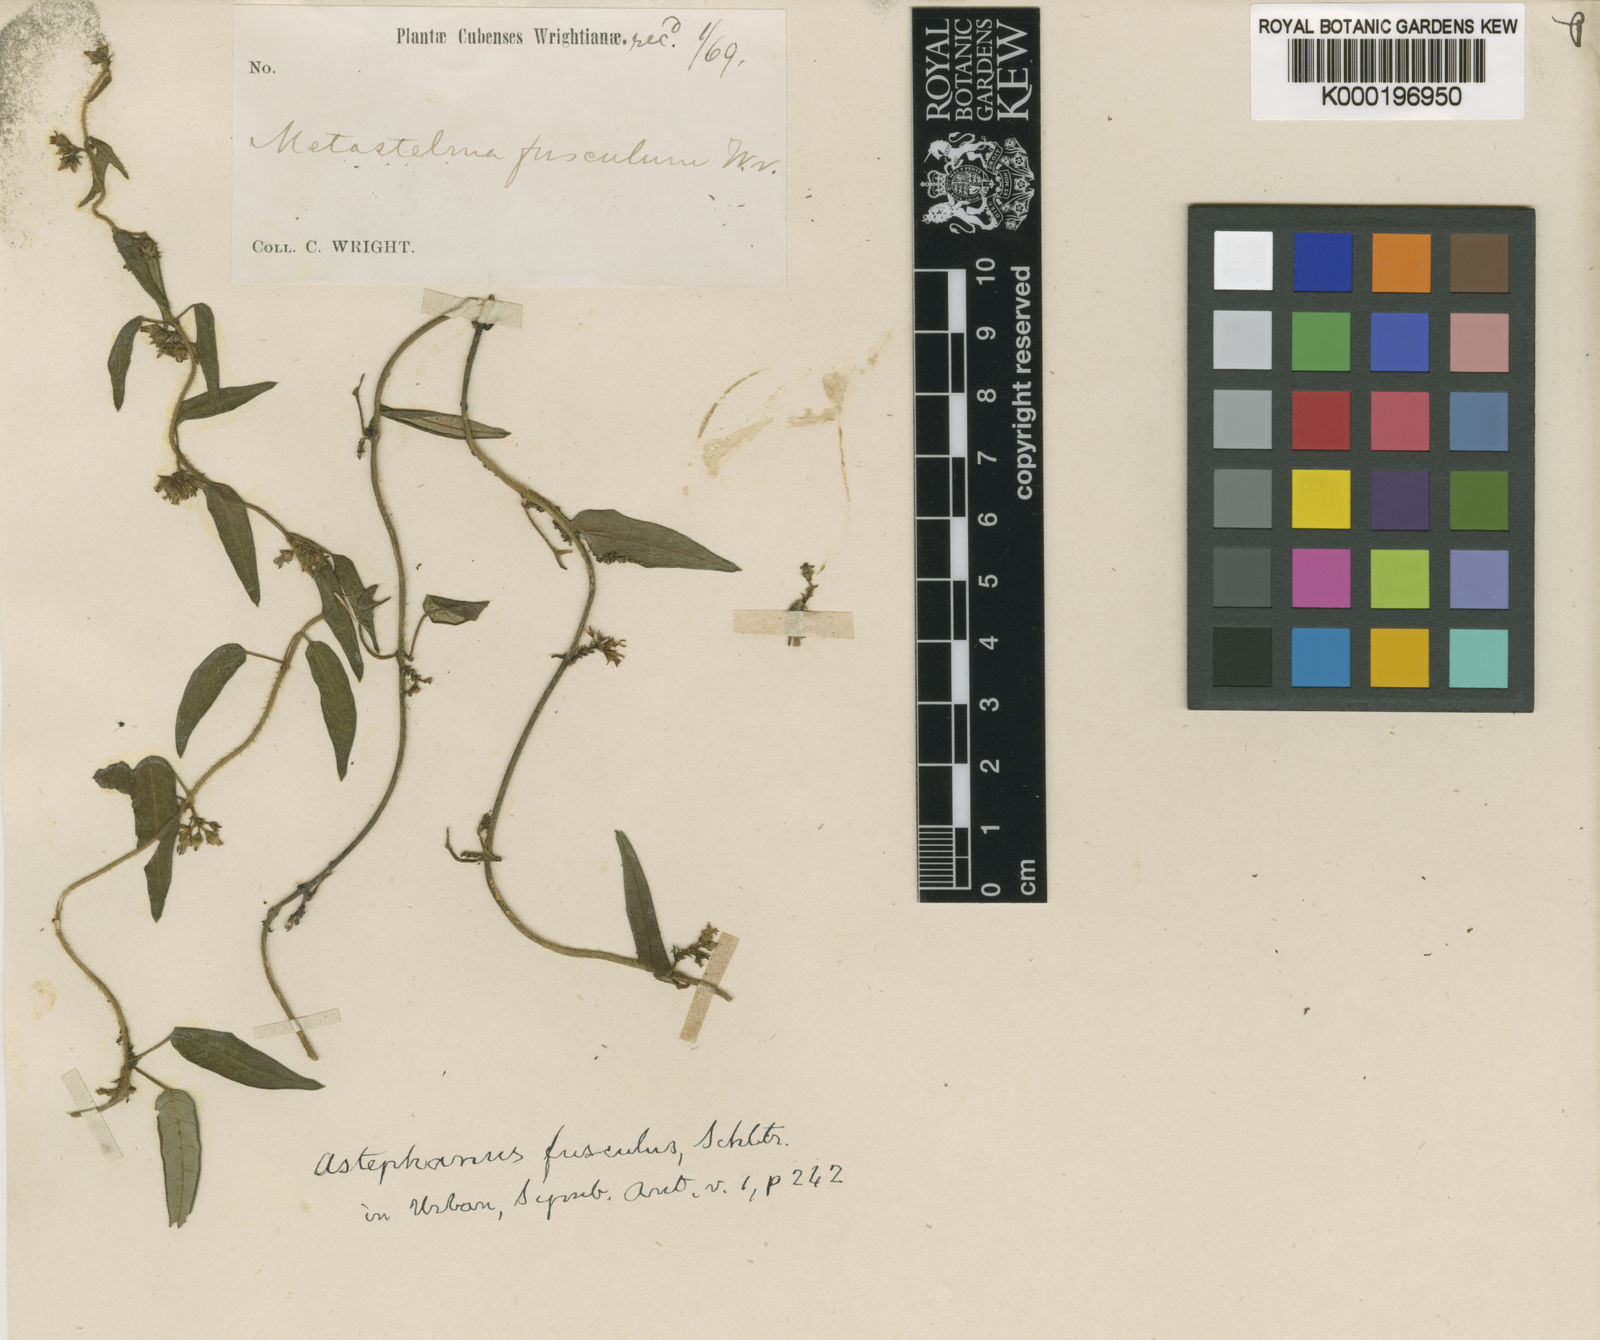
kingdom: Plantae
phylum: Tracheophyta
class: Magnoliopsida
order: Gentianales
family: Apocynaceae
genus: Tylodontia
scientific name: Tylodontia fuscula
